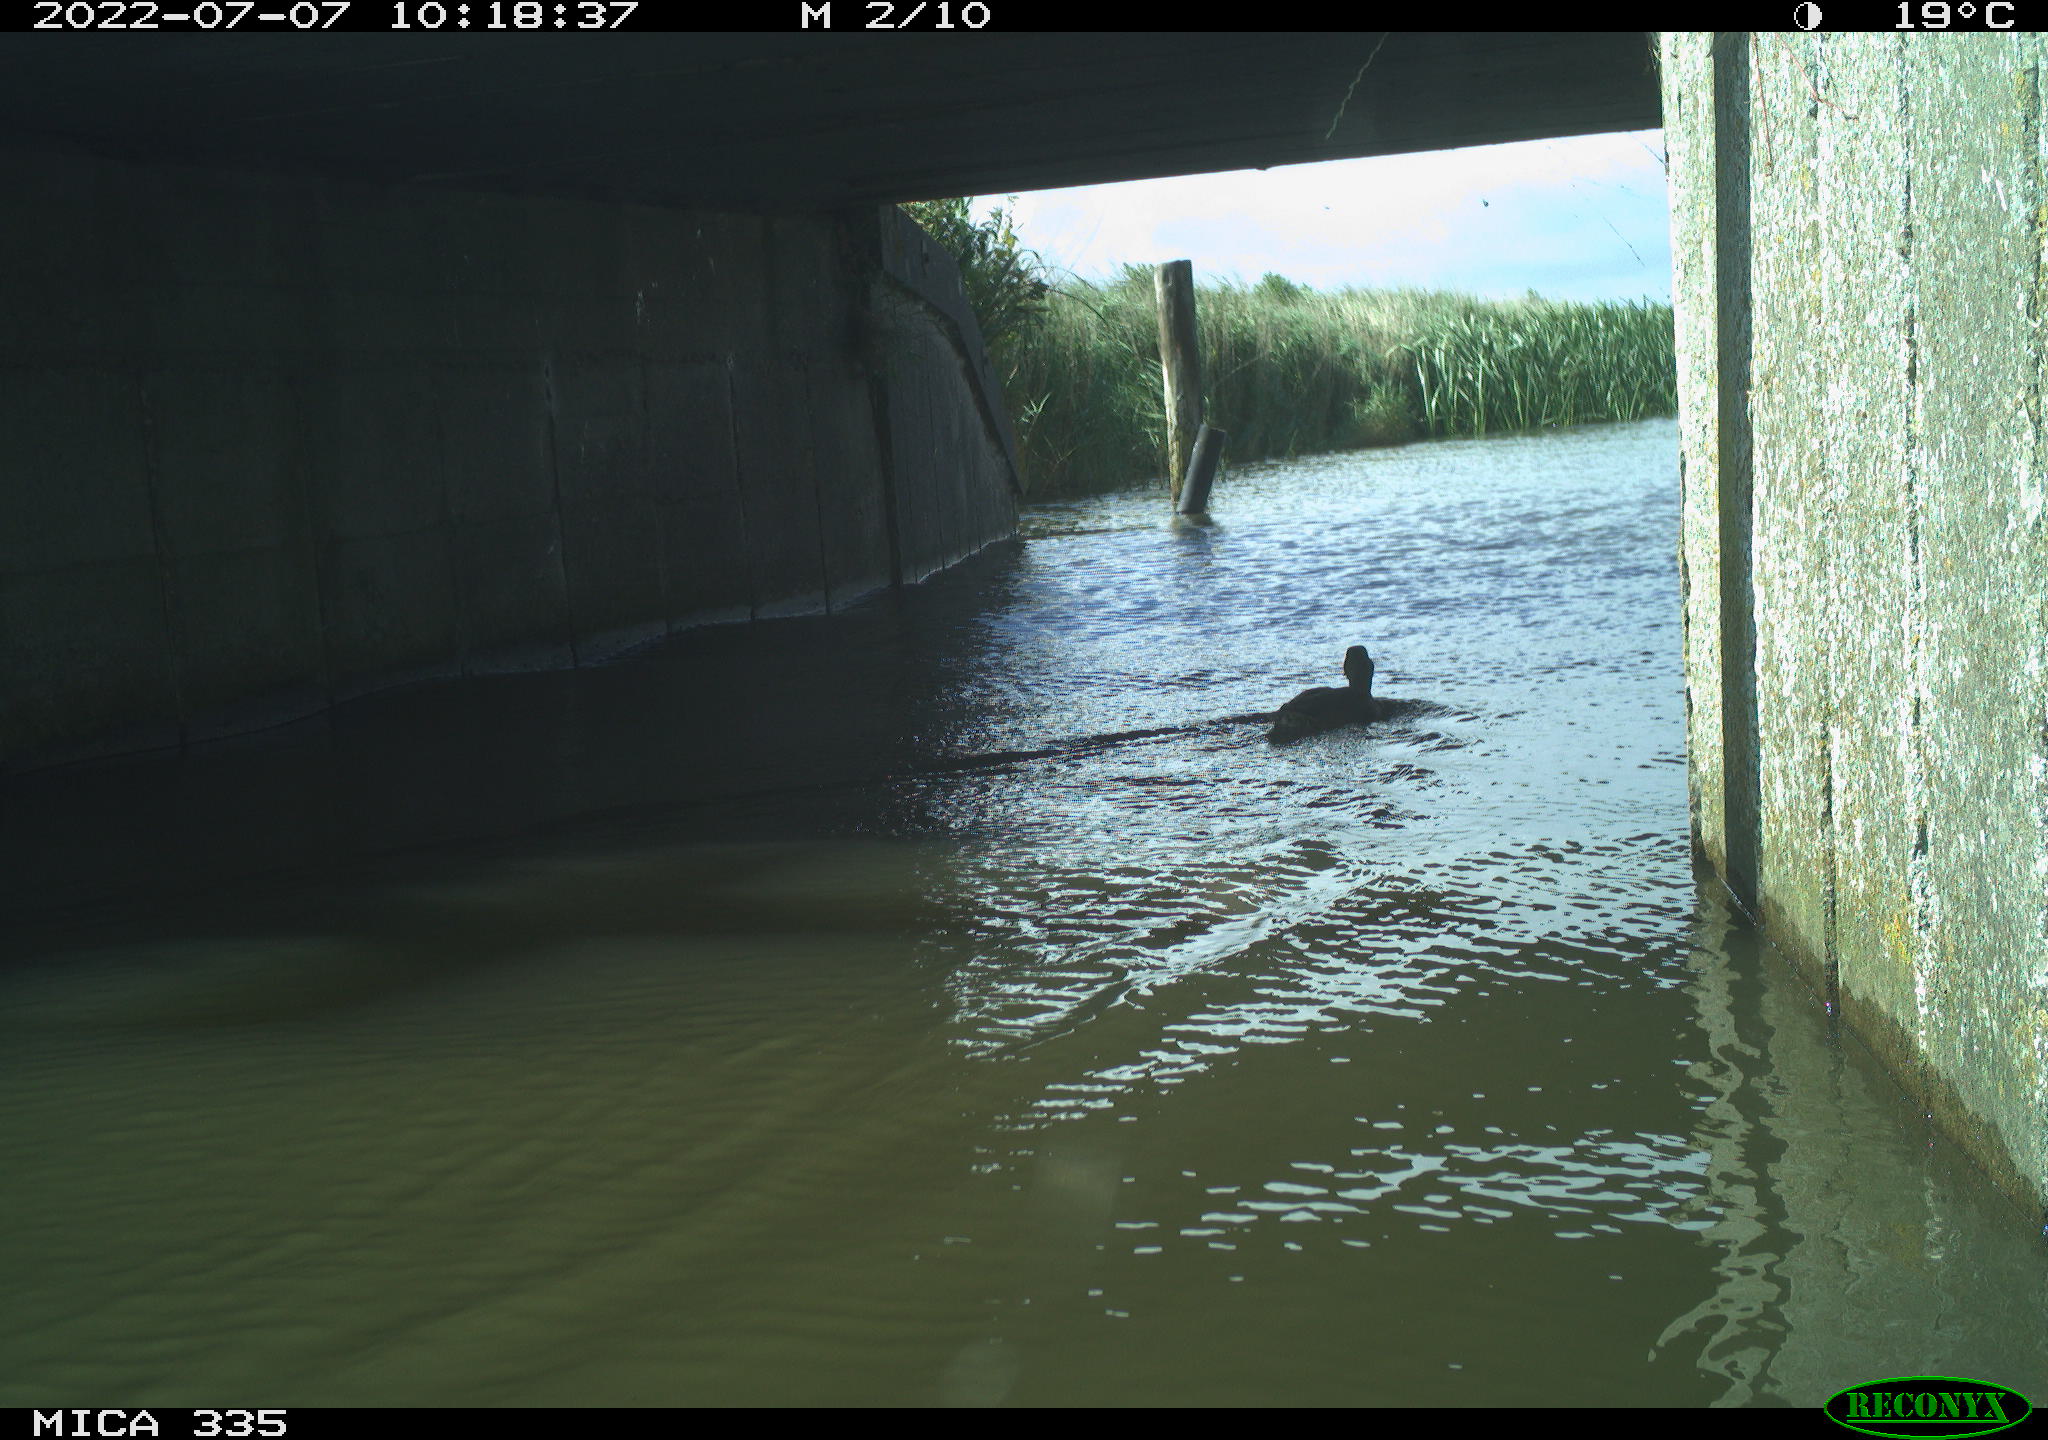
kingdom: Animalia
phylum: Chordata
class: Aves
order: Anseriformes
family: Anatidae
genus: Anas
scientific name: Anas platyrhynchos
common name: Mallard
